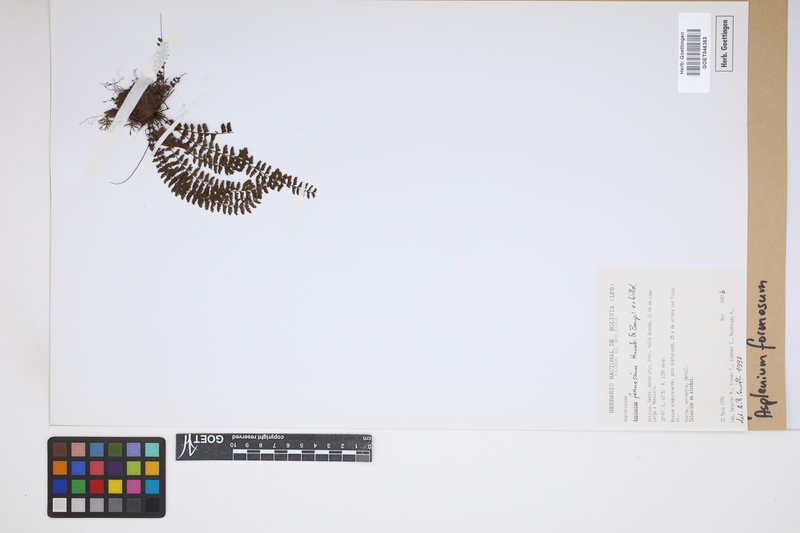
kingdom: Plantae
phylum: Tracheophyta
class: Polypodiopsida
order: Polypodiales
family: Aspleniaceae
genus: Asplenium
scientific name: Asplenium formosum
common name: Showy spleenwort
